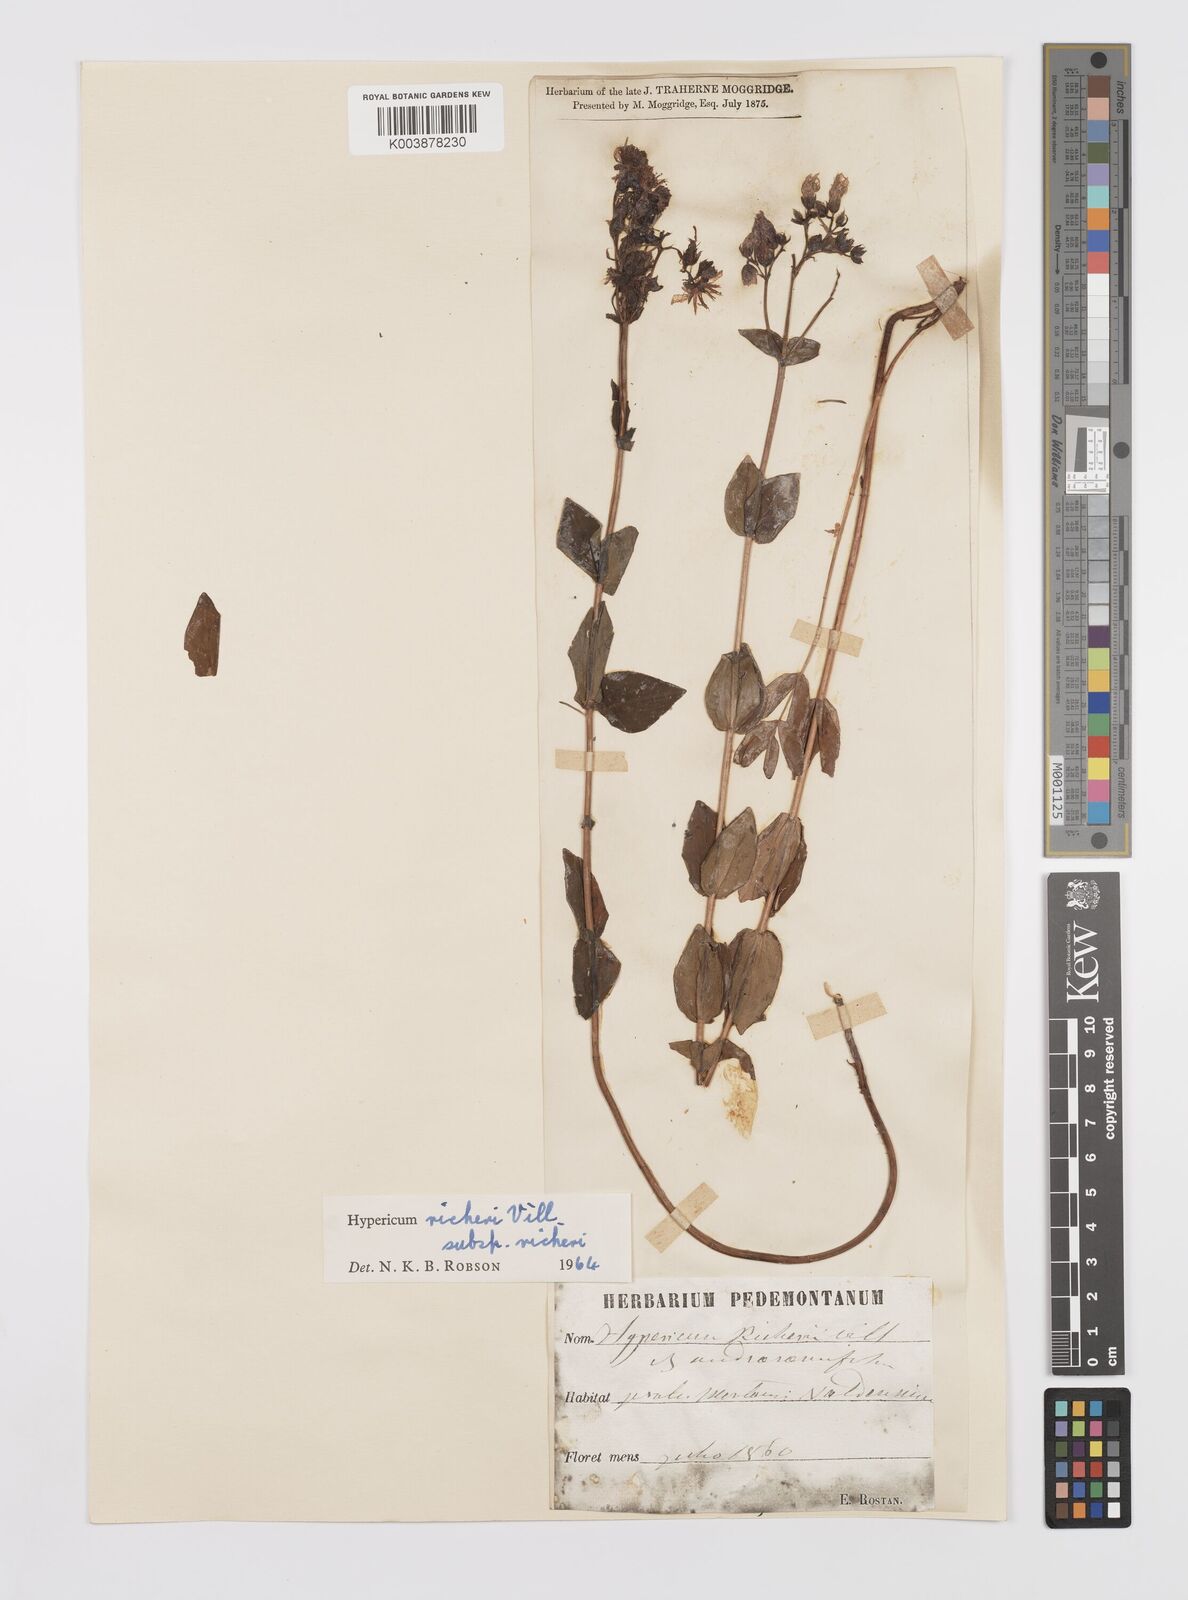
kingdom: Plantae
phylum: Tracheophyta
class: Magnoliopsida
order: Malpighiales
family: Hypericaceae
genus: Hypericum
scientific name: Hypericum richeri
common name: Alpine st john's-wort
